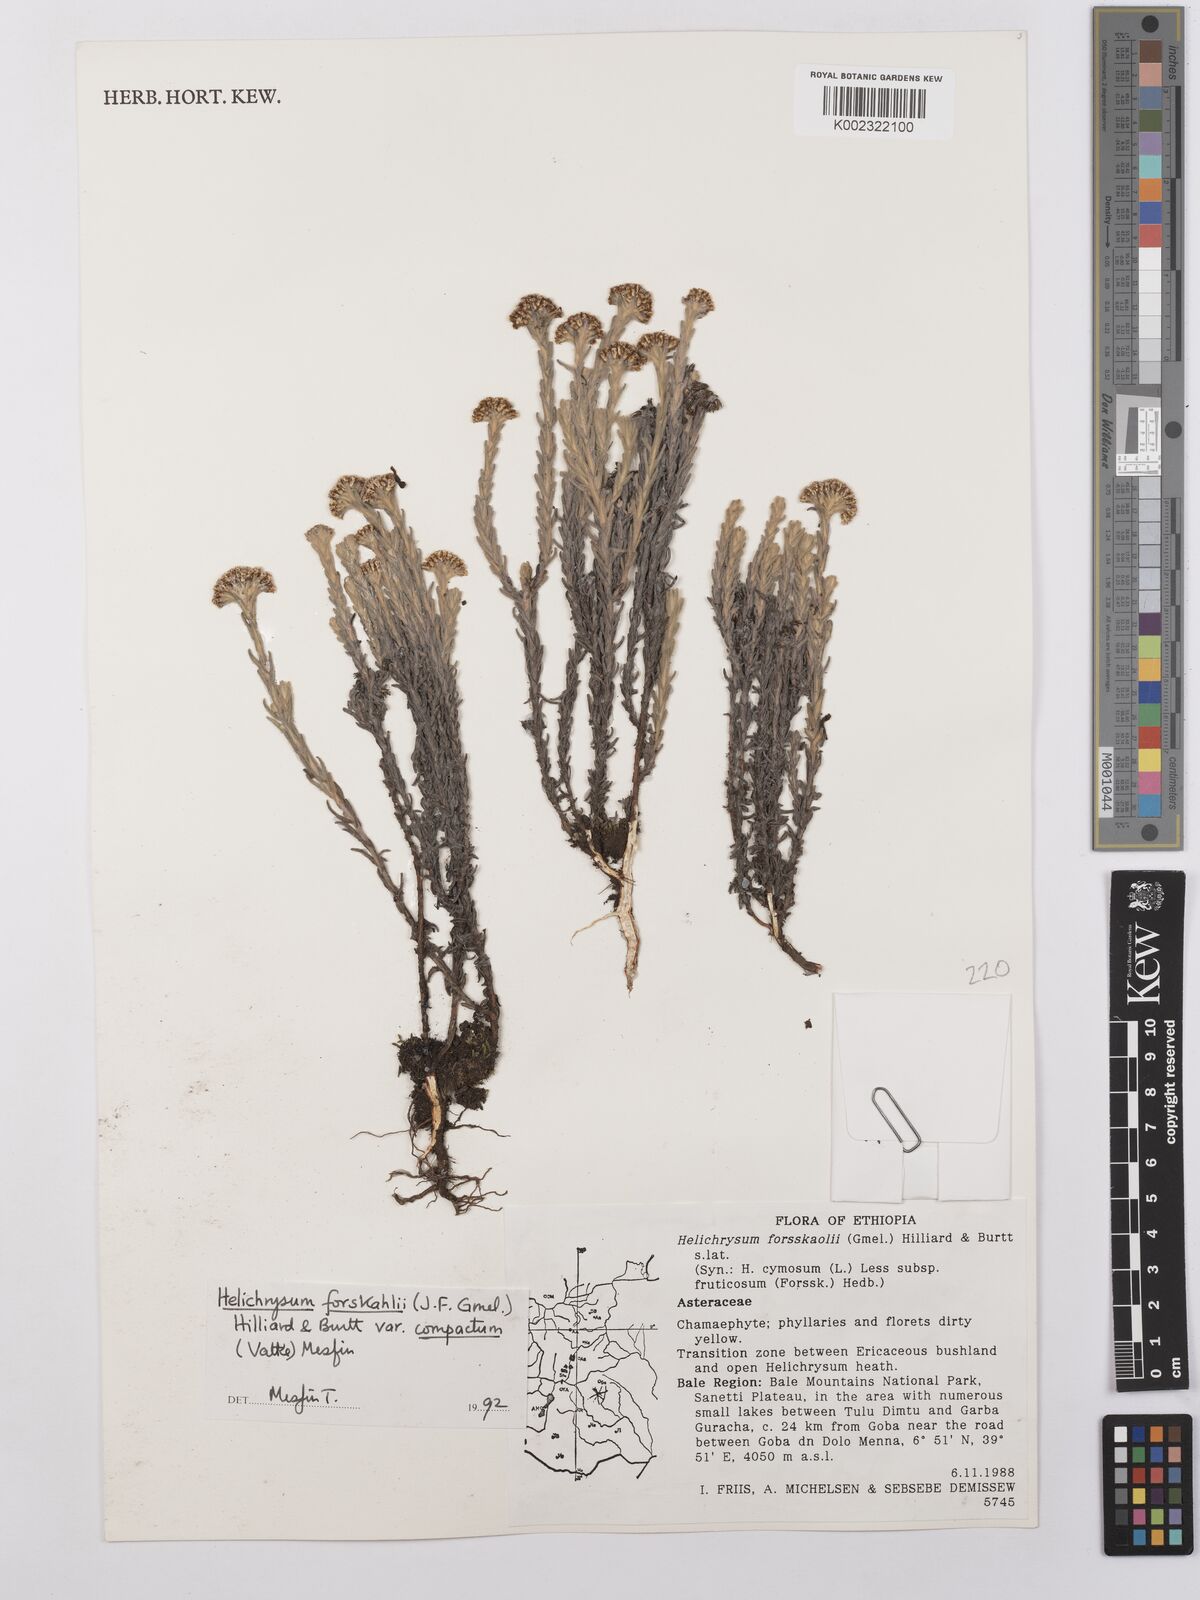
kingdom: Plantae
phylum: Tracheophyta
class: Magnoliopsida
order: Asterales
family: Asteraceae
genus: Helichrysum
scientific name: Helichrysum forskahlii
